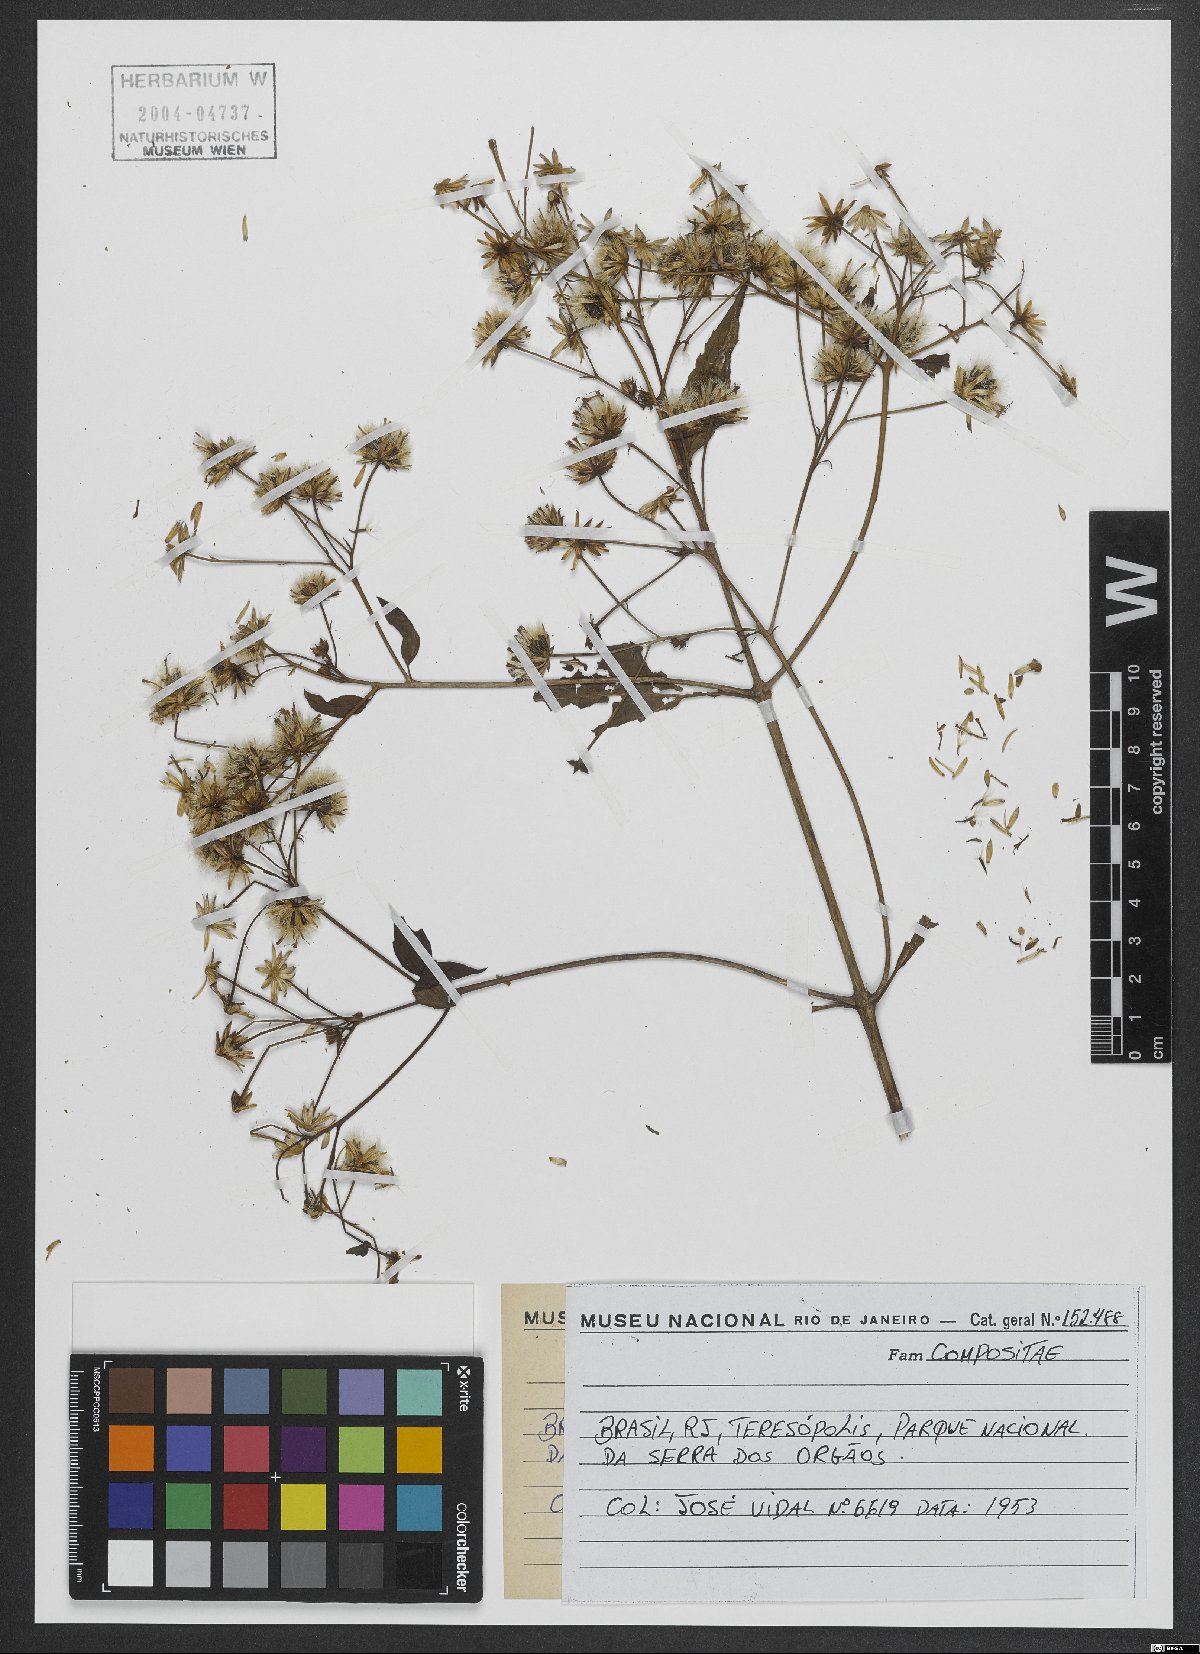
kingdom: Plantae
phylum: Tracheophyta
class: Magnoliopsida
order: Asterales
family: Asteraceae
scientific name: Asteraceae
